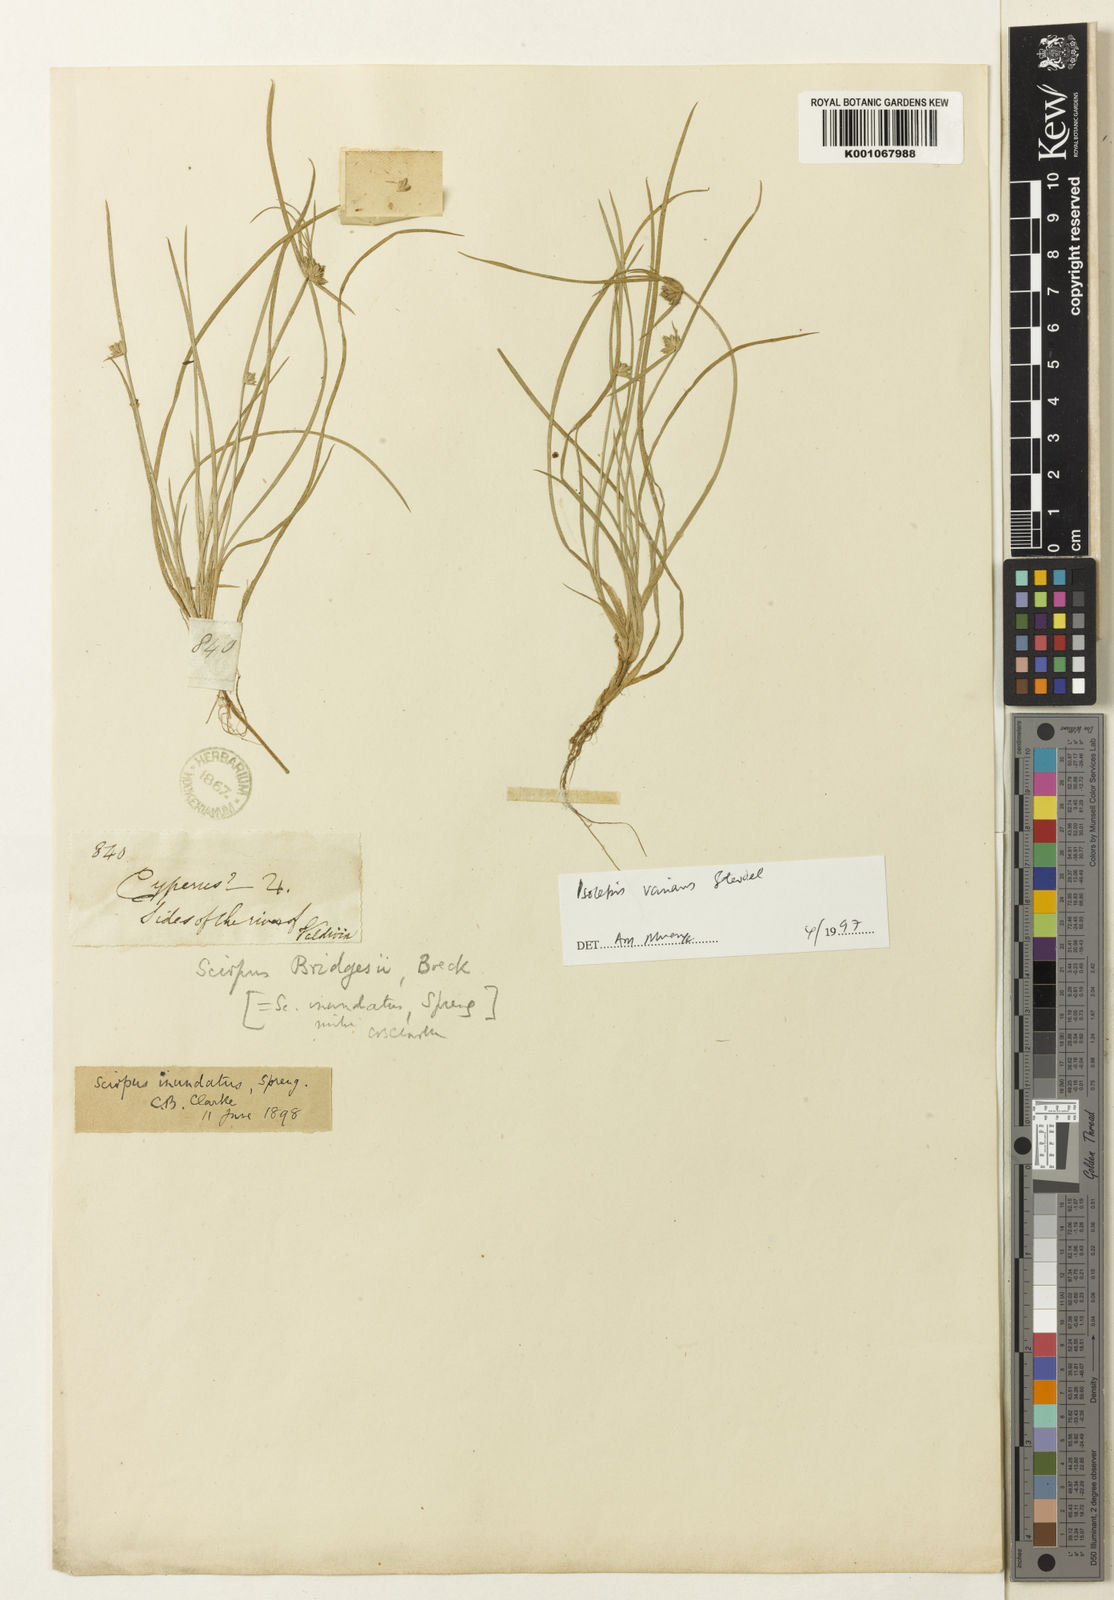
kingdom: Plantae
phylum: Tracheophyta
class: Liliopsida
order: Poales
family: Cyperaceae
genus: Isolepis
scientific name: Isolepis inundata
